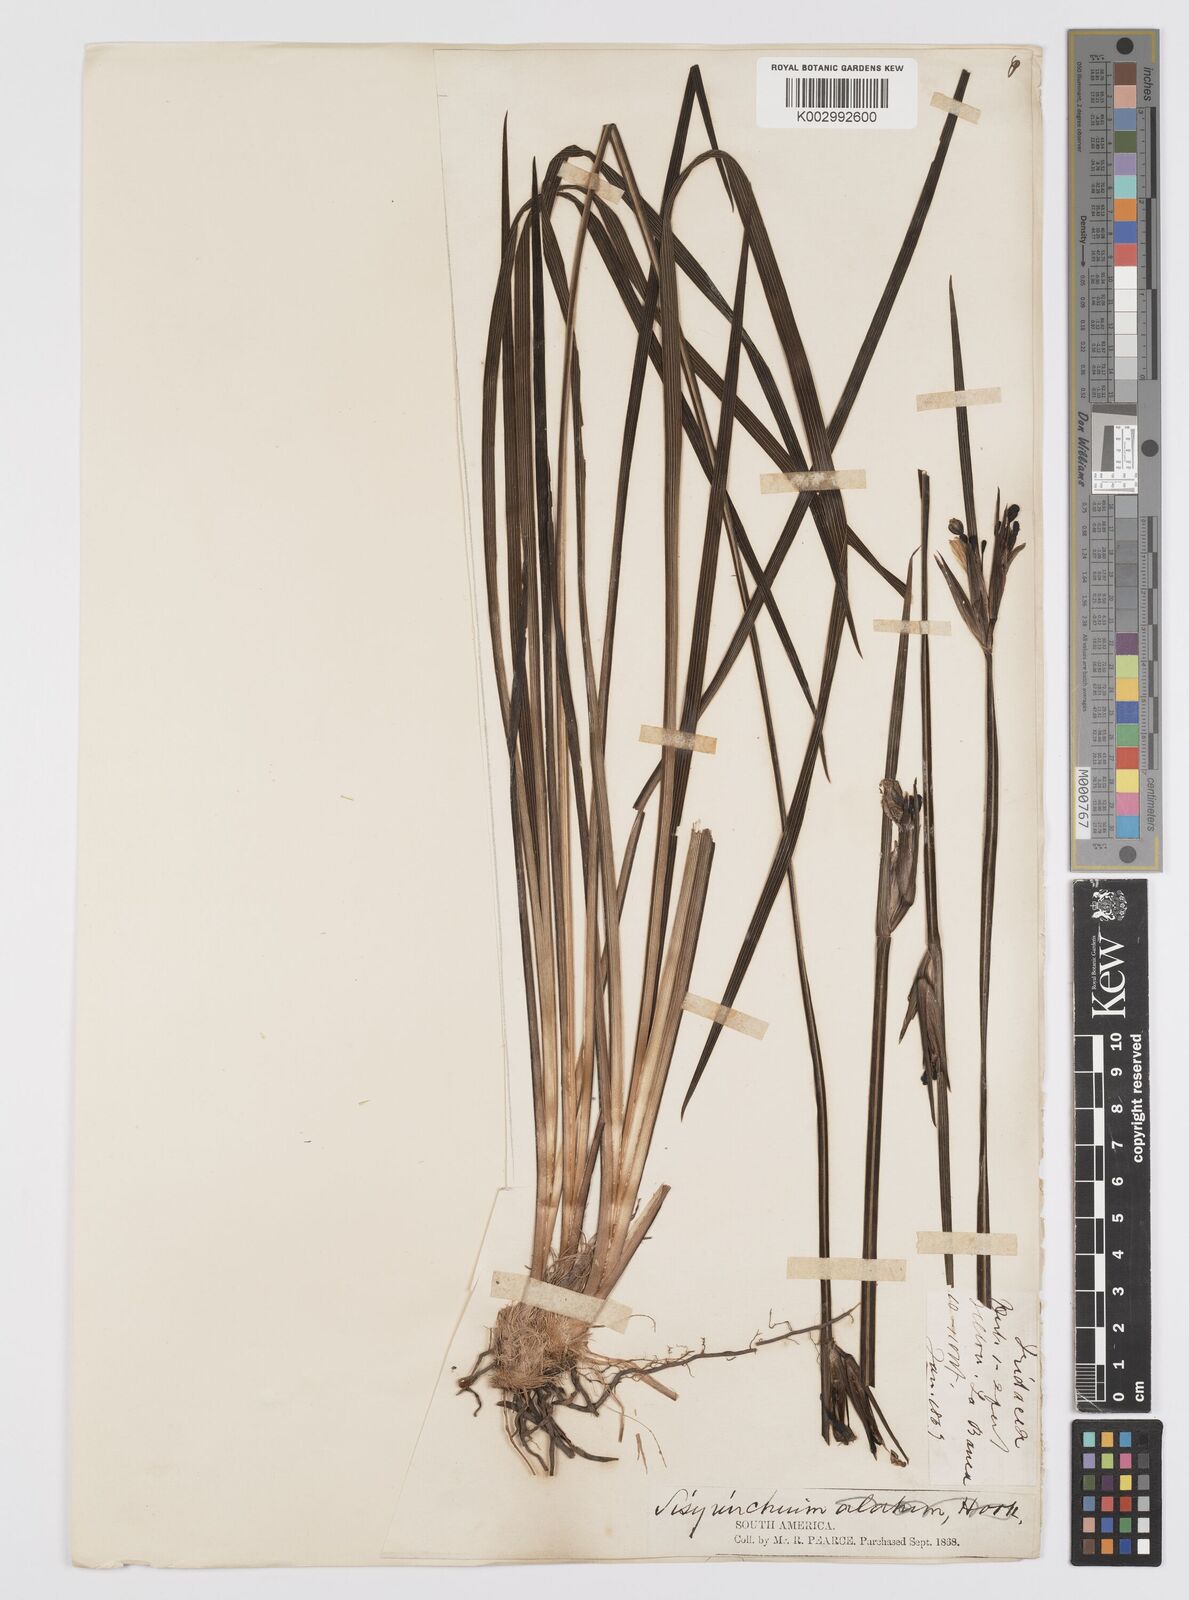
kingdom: Plantae
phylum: Tracheophyta
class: Liliopsida
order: Asparagales
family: Iridaceae
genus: Sisyrinchium
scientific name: Sisyrinchium palmifolium
